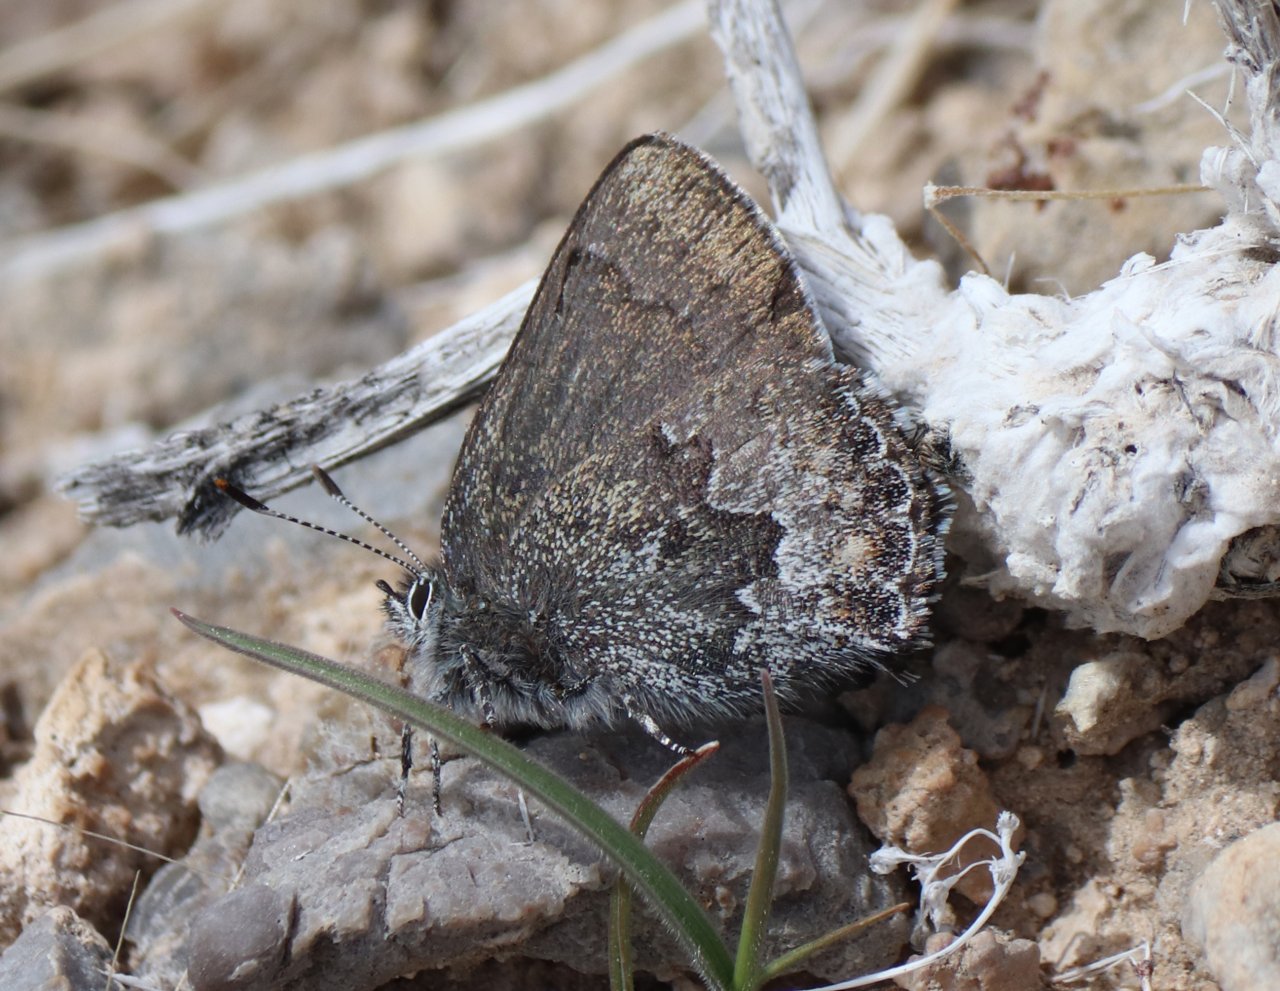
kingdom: Animalia
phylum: Arthropoda
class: Insecta
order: Lepidoptera
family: Lycaenidae
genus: Callophrys
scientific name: Callophrys fotis
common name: Desert Elfin
